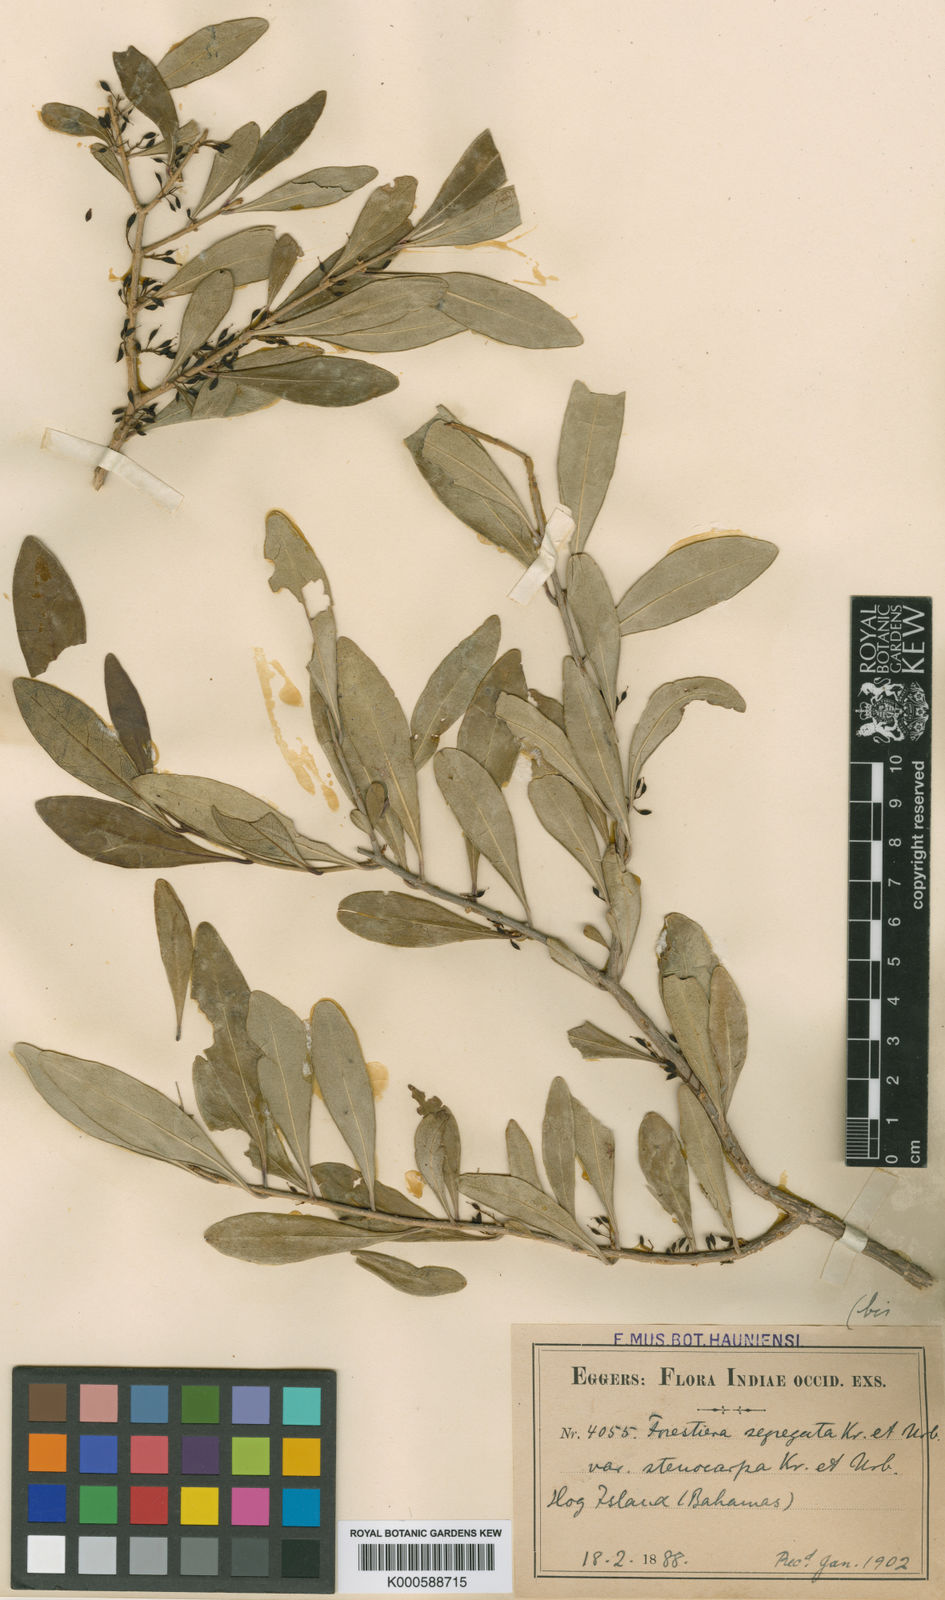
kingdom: Plantae
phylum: Tracheophyta
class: Magnoliopsida
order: Lamiales
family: Oleaceae
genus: Forestiera
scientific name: Forestiera segregata
